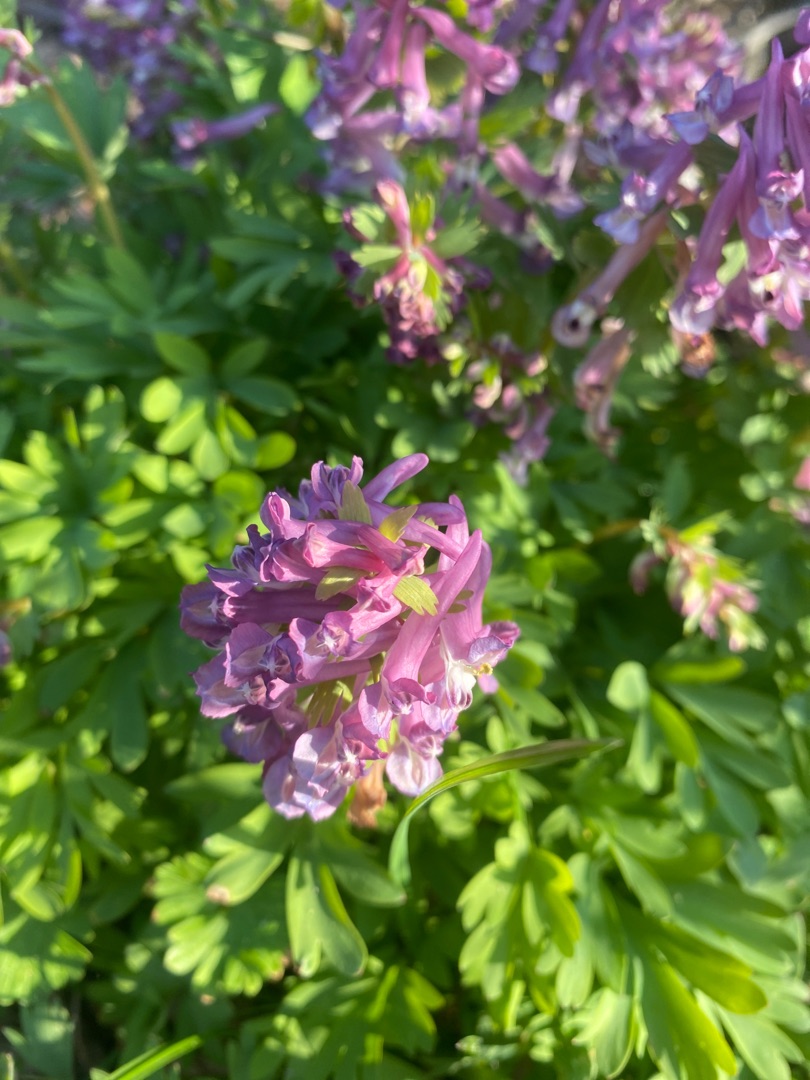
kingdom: Plantae
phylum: Tracheophyta
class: Magnoliopsida
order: Ranunculales
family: Papaveraceae
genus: Corydalis
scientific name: Corydalis solida
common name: Langstilket lærkespore
